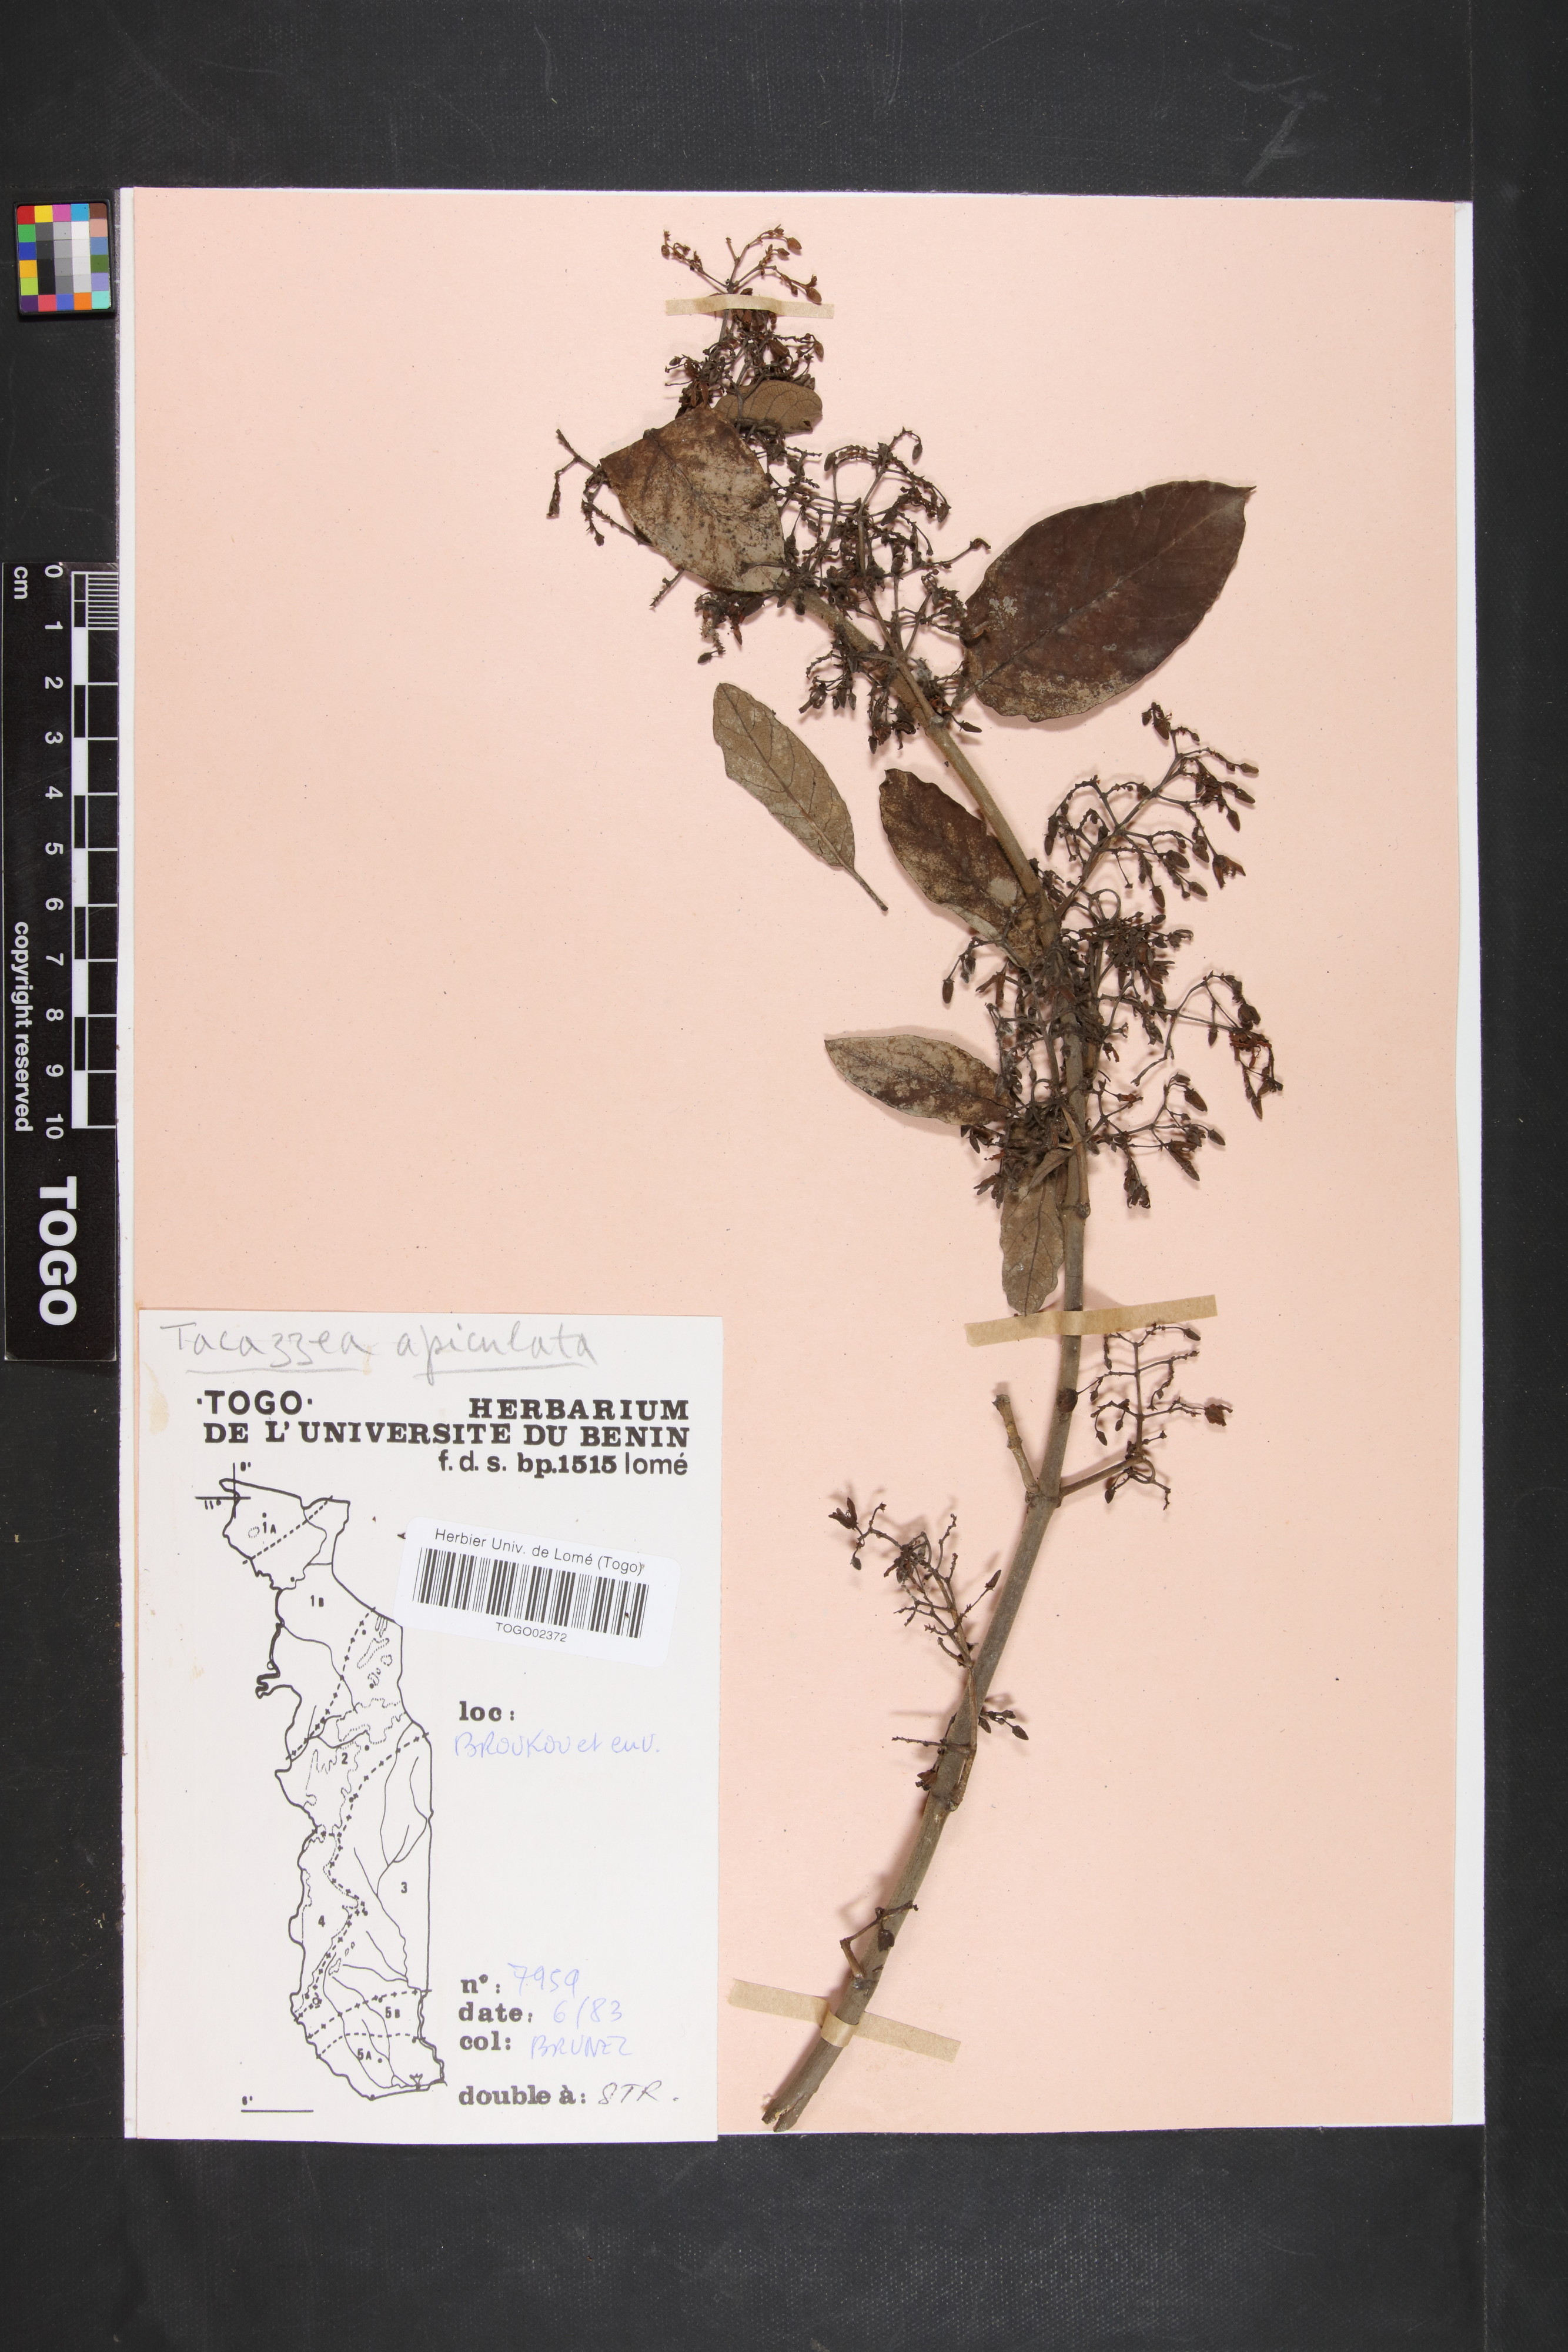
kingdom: Plantae
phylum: Tracheophyta
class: Magnoliopsida
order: Gentianales
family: Apocynaceae
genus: Tacazzea
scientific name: Tacazzea apiculata
